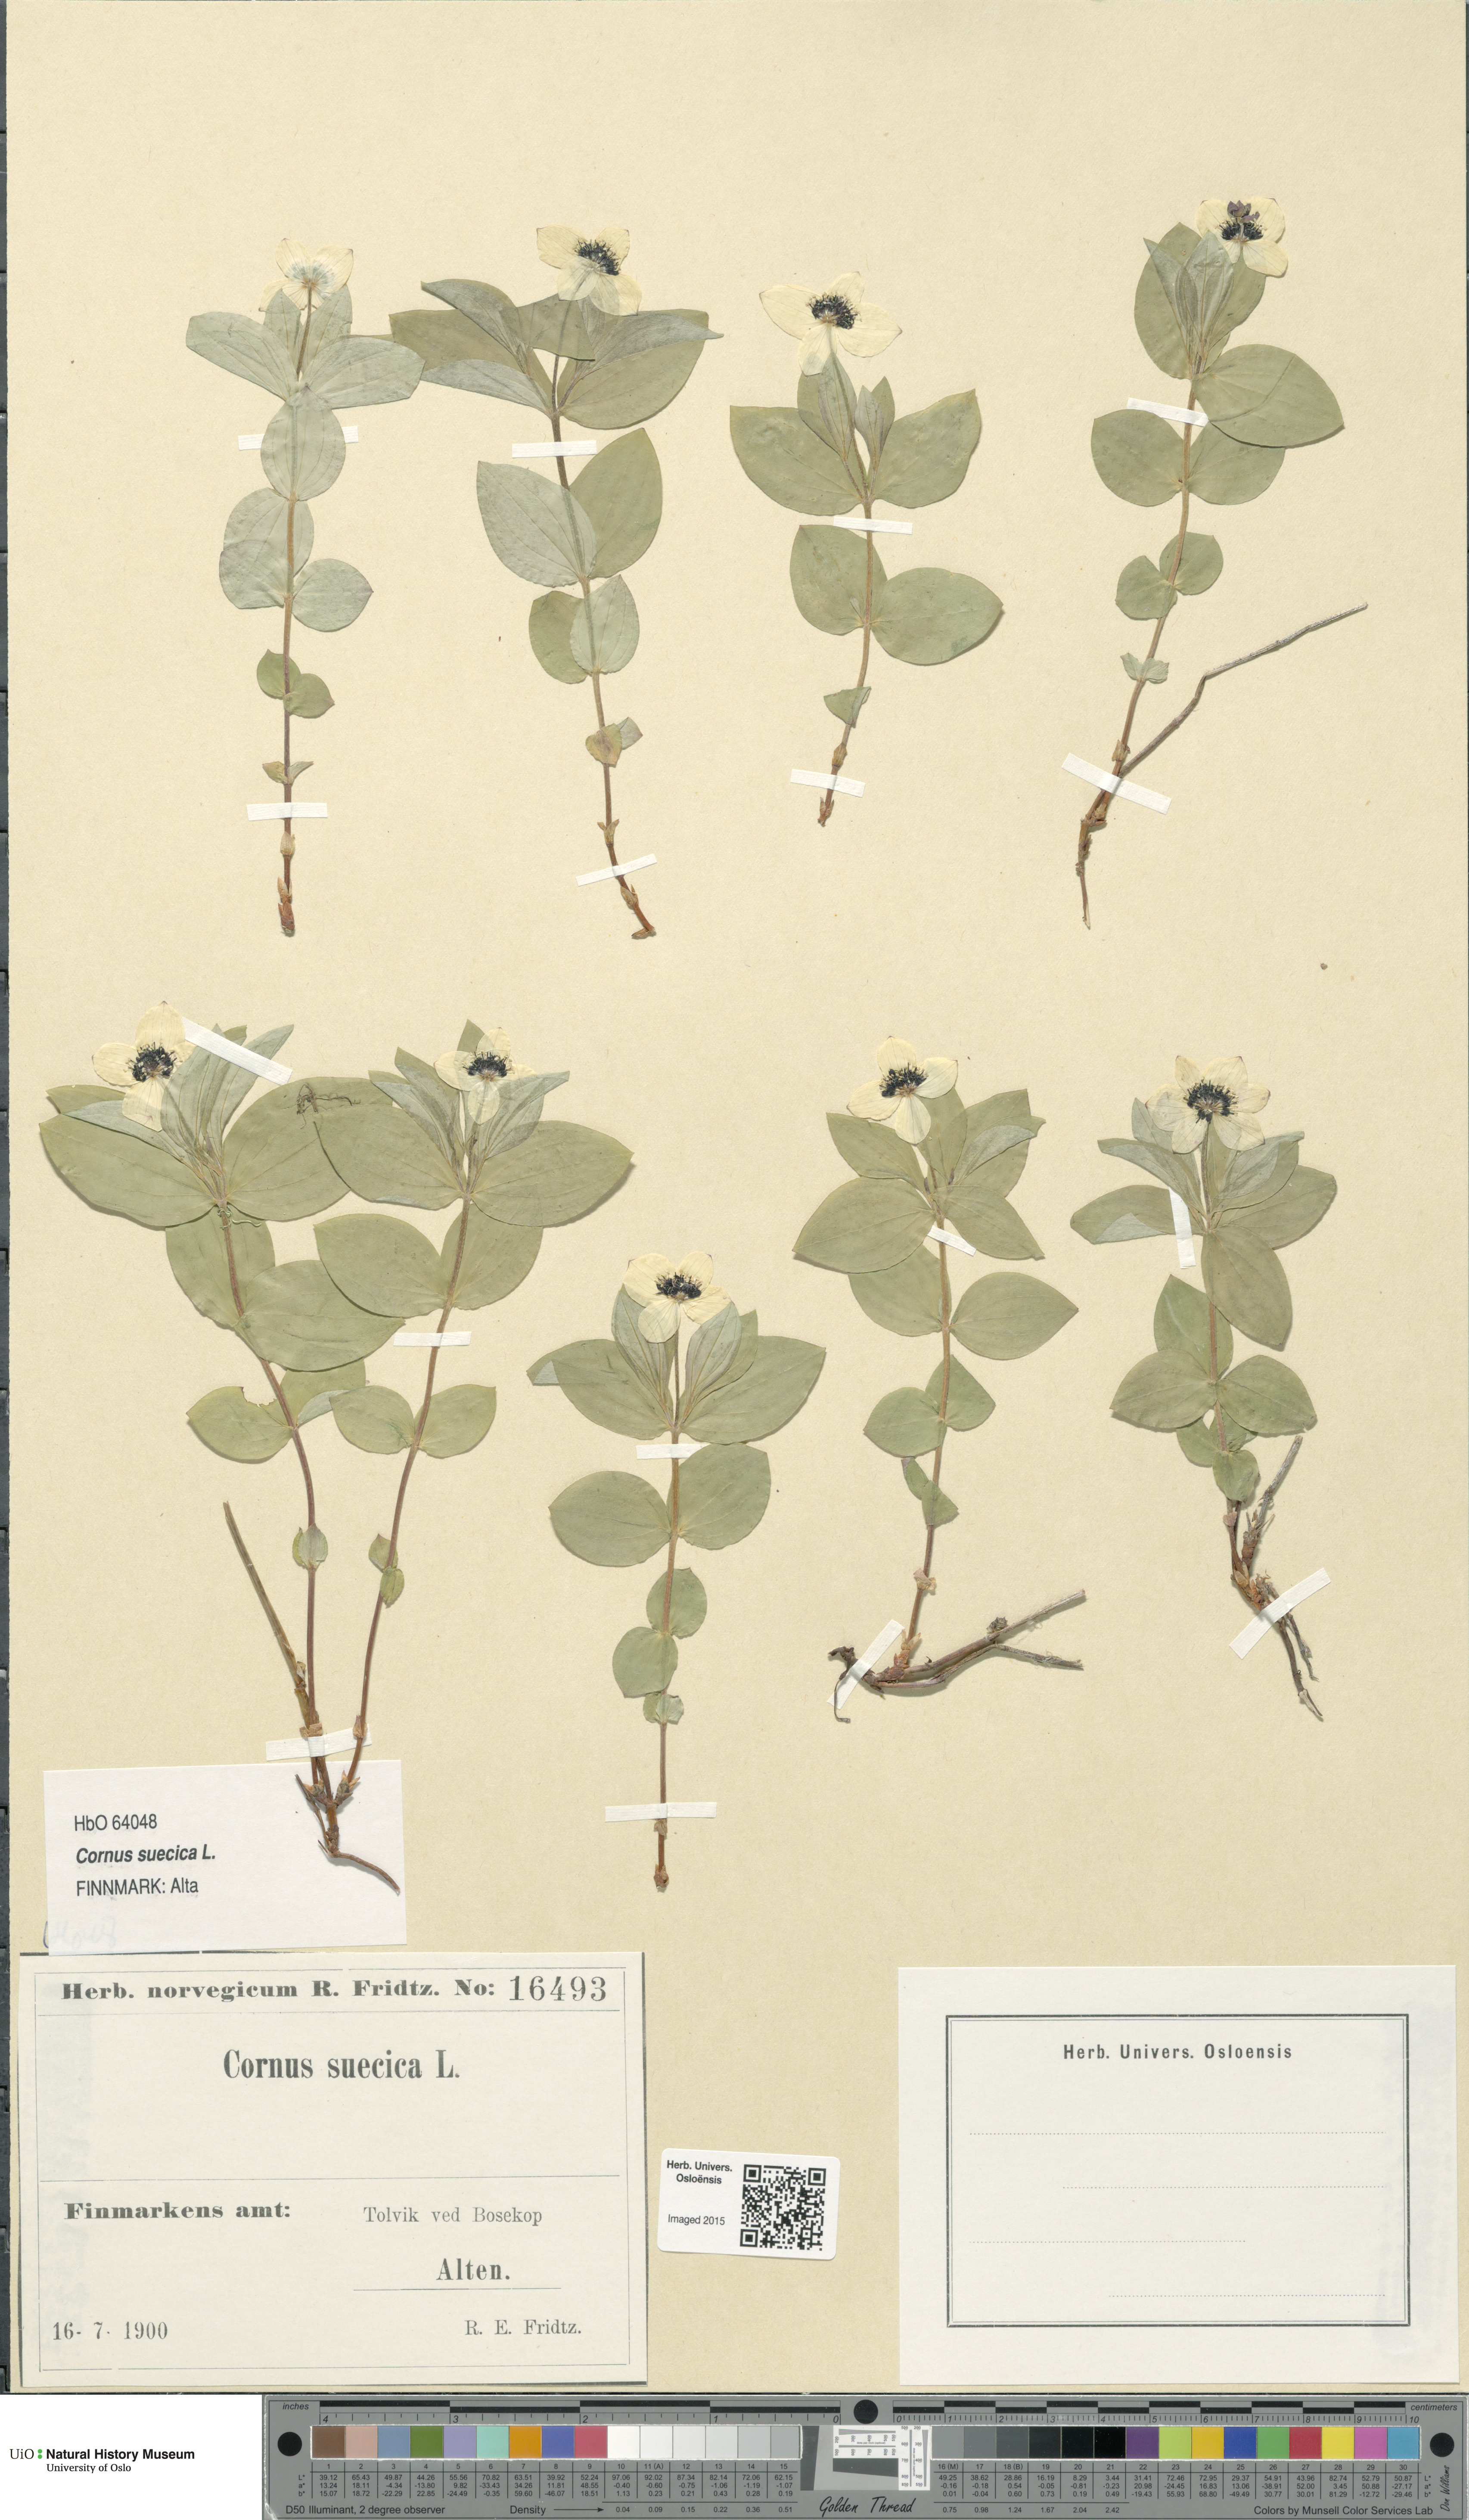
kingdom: Plantae
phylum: Tracheophyta
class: Magnoliopsida
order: Cornales
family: Cornaceae
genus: Cornus
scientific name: Cornus suecica
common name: Dwarf cornel
